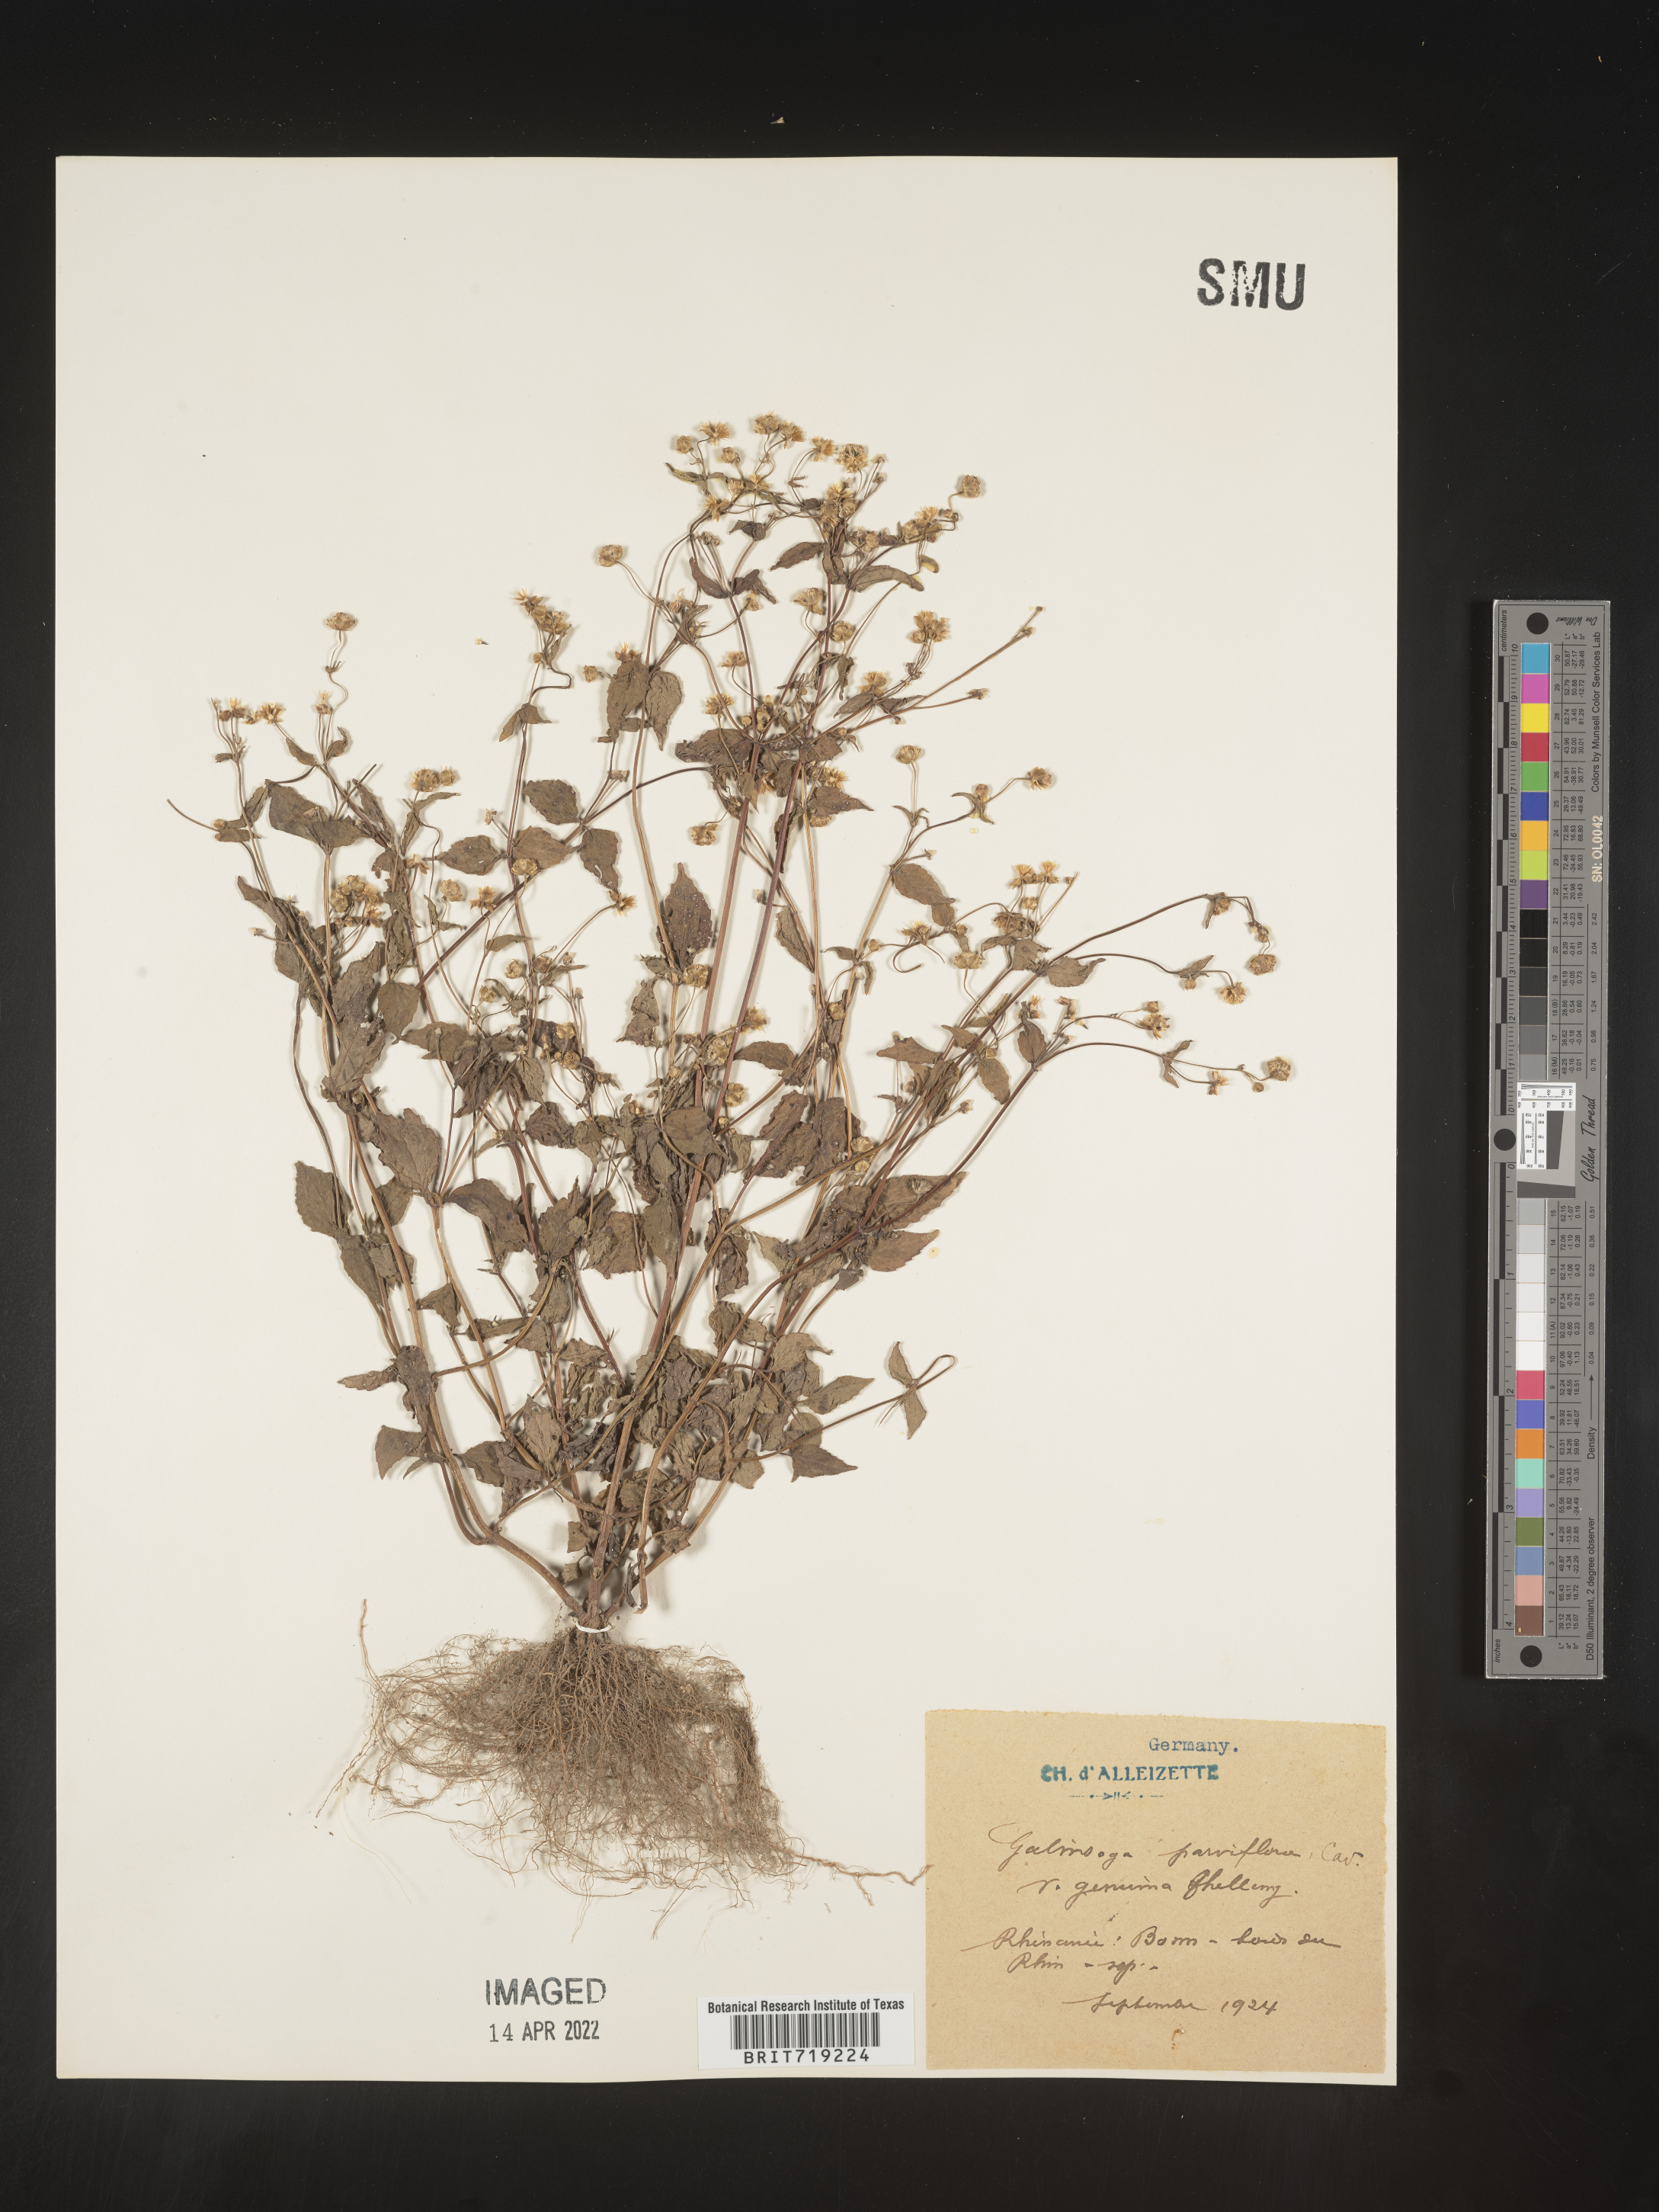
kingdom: Plantae
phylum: Tracheophyta
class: Magnoliopsida
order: Asterales
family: Asteraceae
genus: Galinsoga
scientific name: Galinsoga
